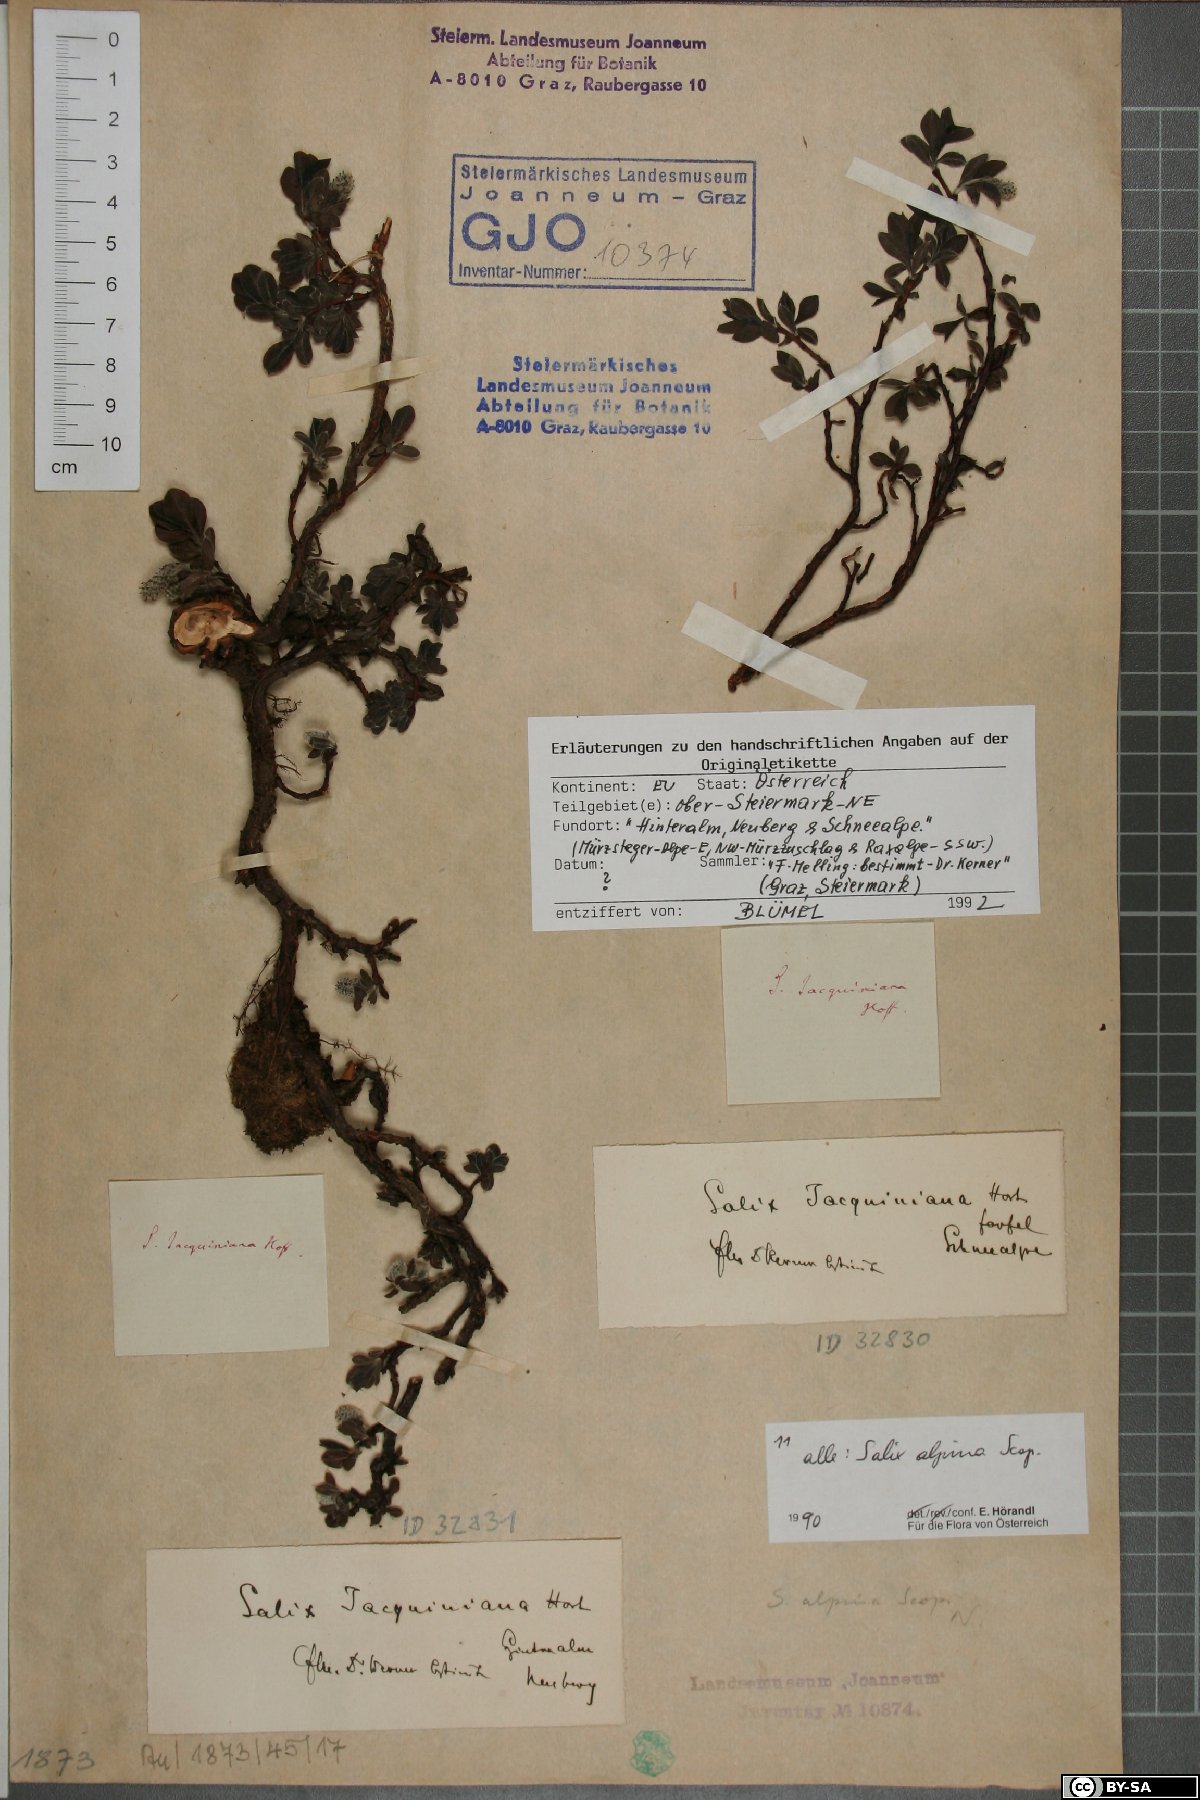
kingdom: Plantae
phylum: Tracheophyta
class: Magnoliopsida
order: Malpighiales
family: Salicaceae
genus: Salix
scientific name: Salix alpina
